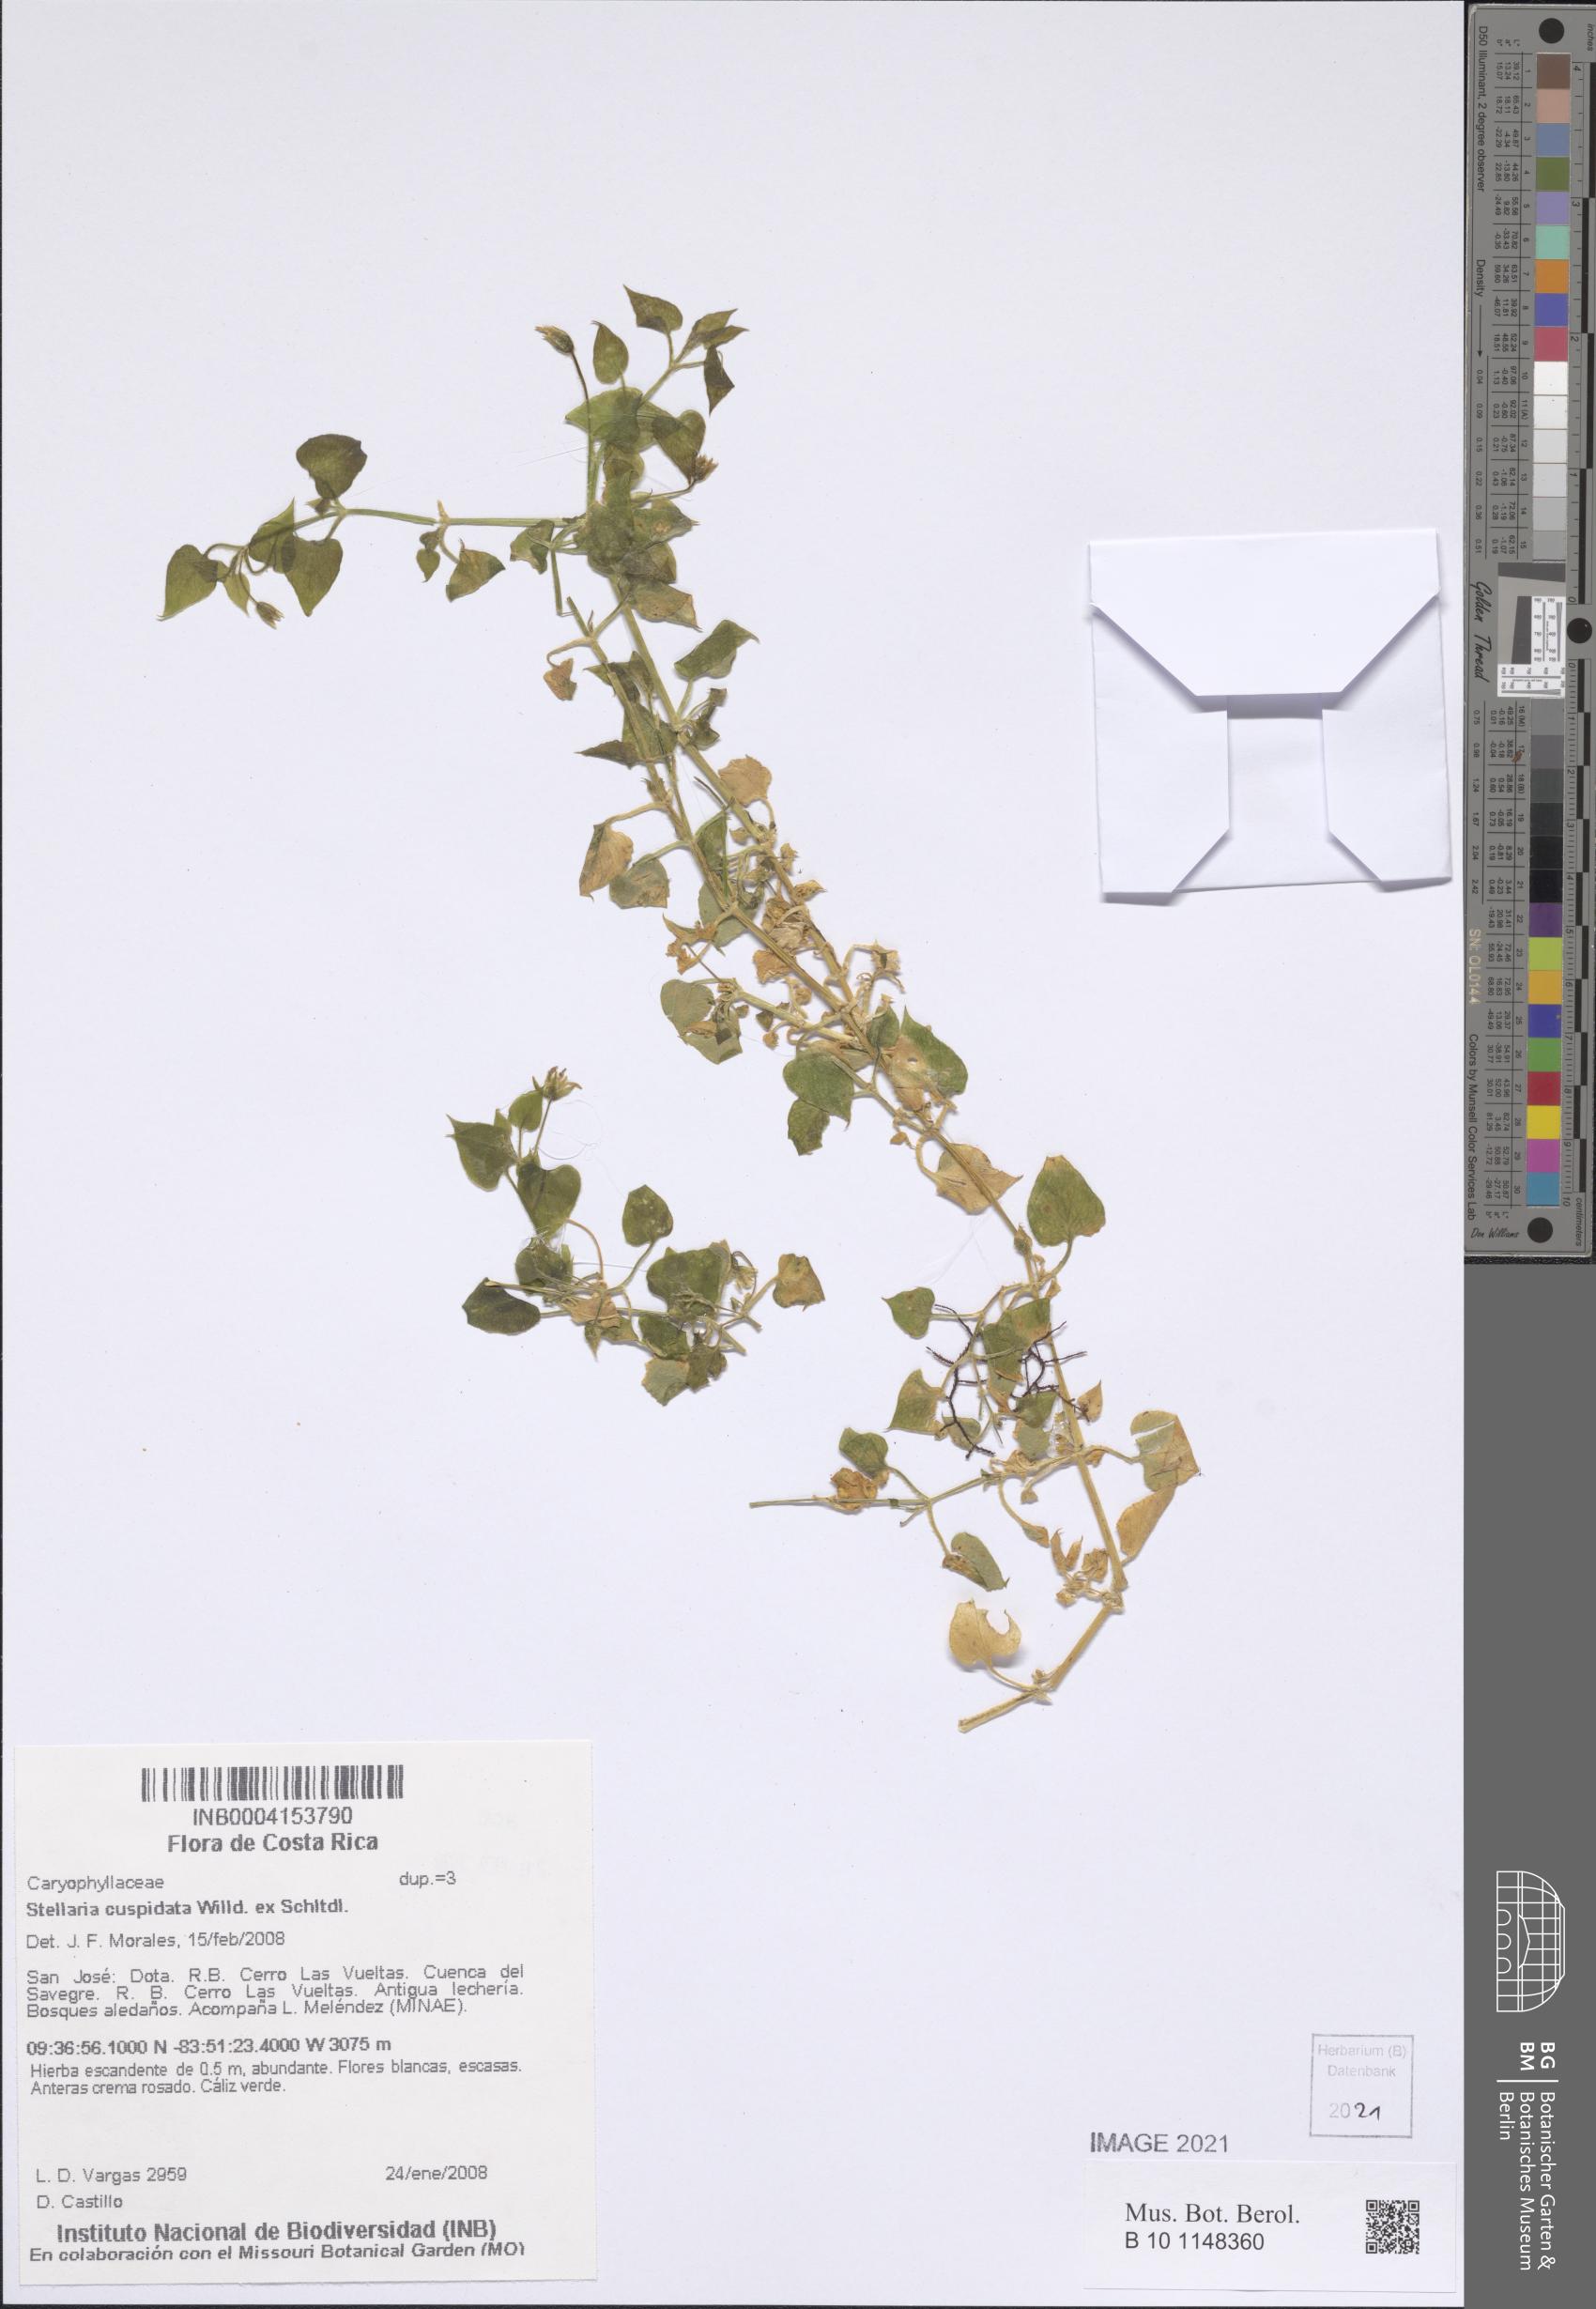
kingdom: Plantae
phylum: Tracheophyta
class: Magnoliopsida
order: Caryophyllales
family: Caryophyllaceae
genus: Stellaria
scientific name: Stellaria cuspidata
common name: Mexican chickweed
